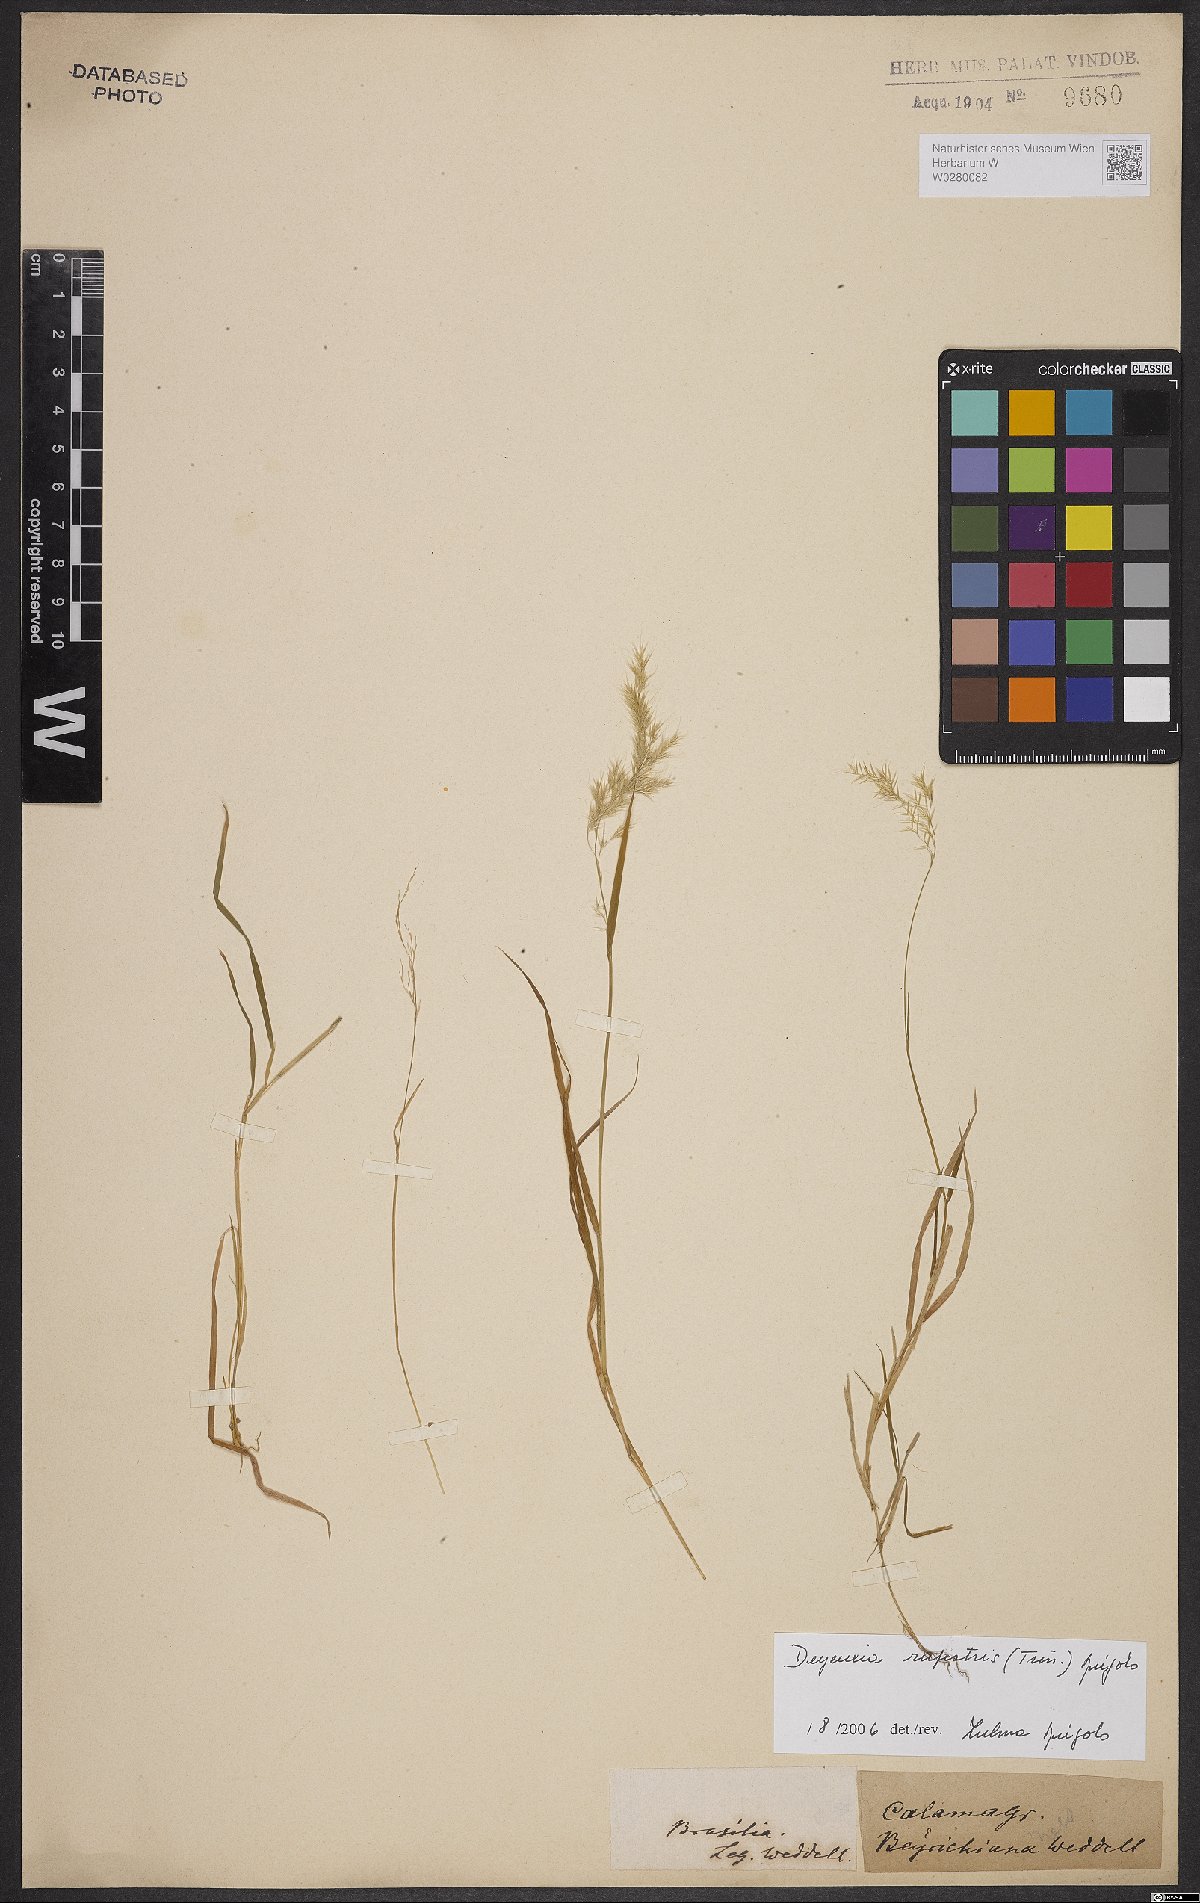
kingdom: Plantae
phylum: Tracheophyta
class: Liliopsida
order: Poales
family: Poaceae
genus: Cinnagrostis
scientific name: Cinnagrostis rupestris
